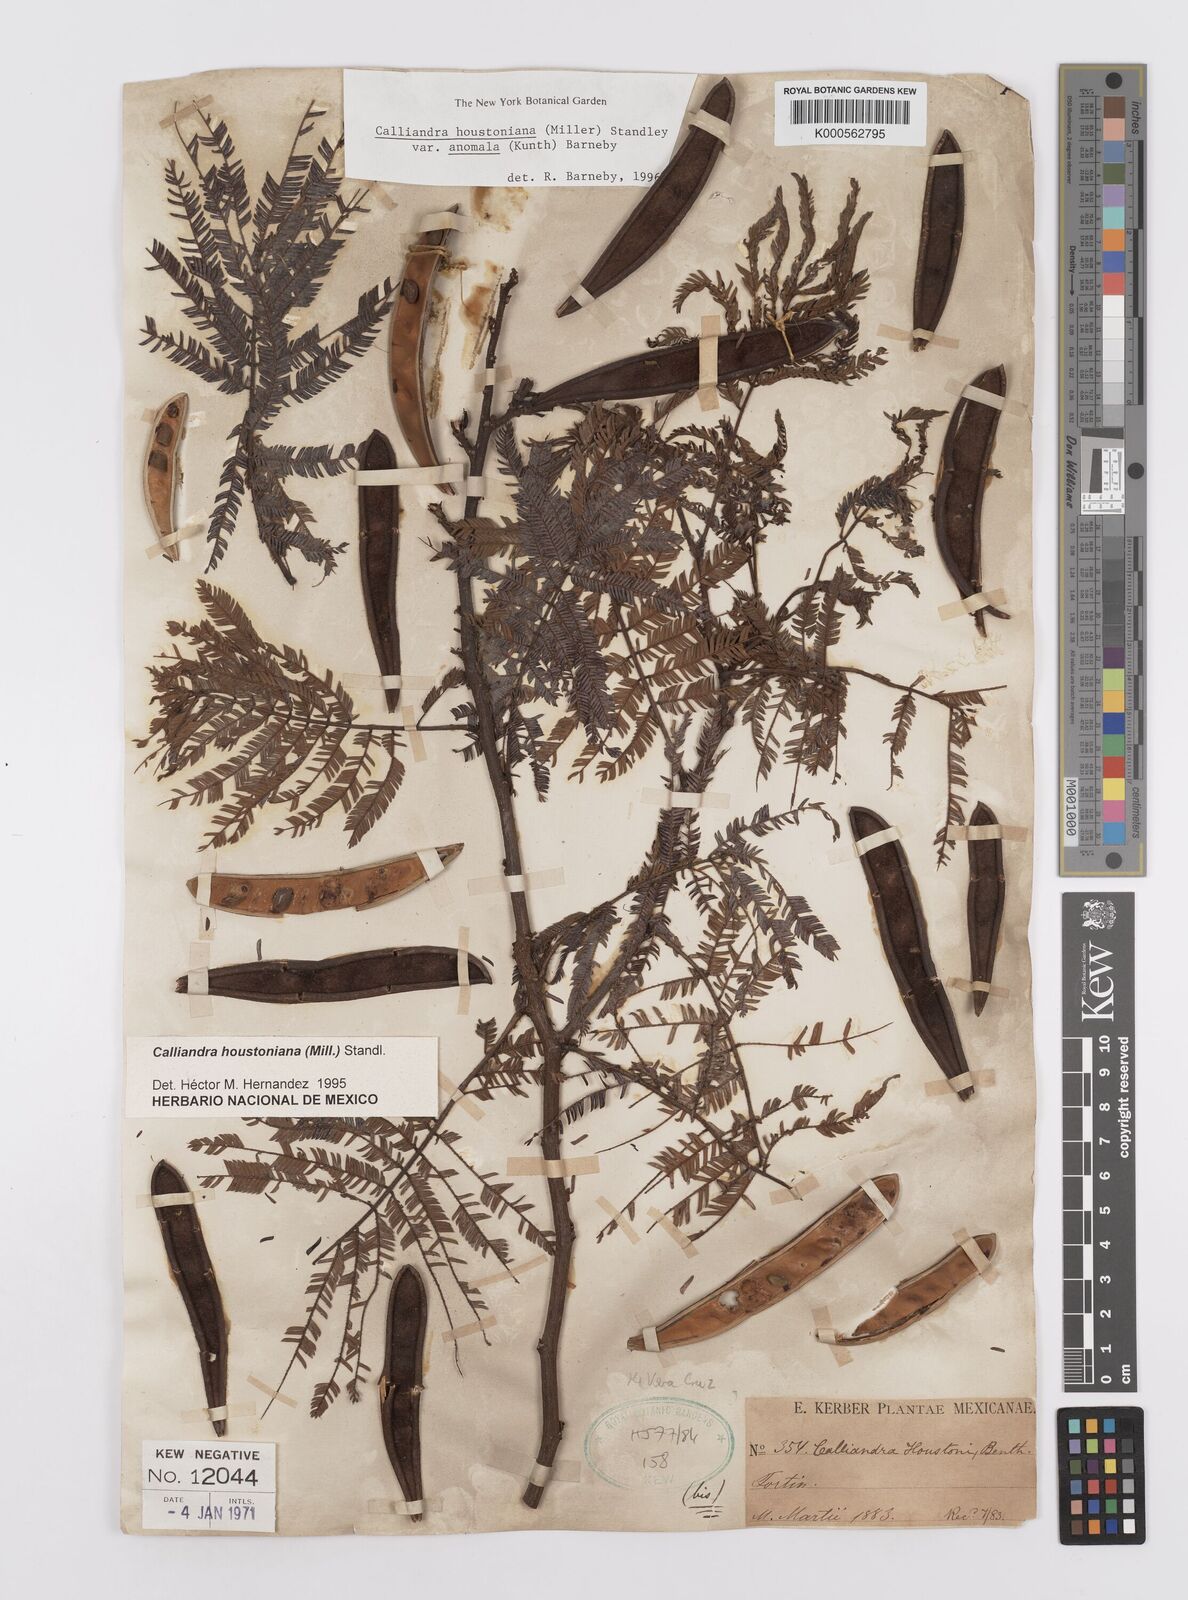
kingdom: Plantae
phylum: Tracheophyta
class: Magnoliopsida
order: Fabales
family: Fabaceae
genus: Calliandra
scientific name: Calliandra houstoniana
